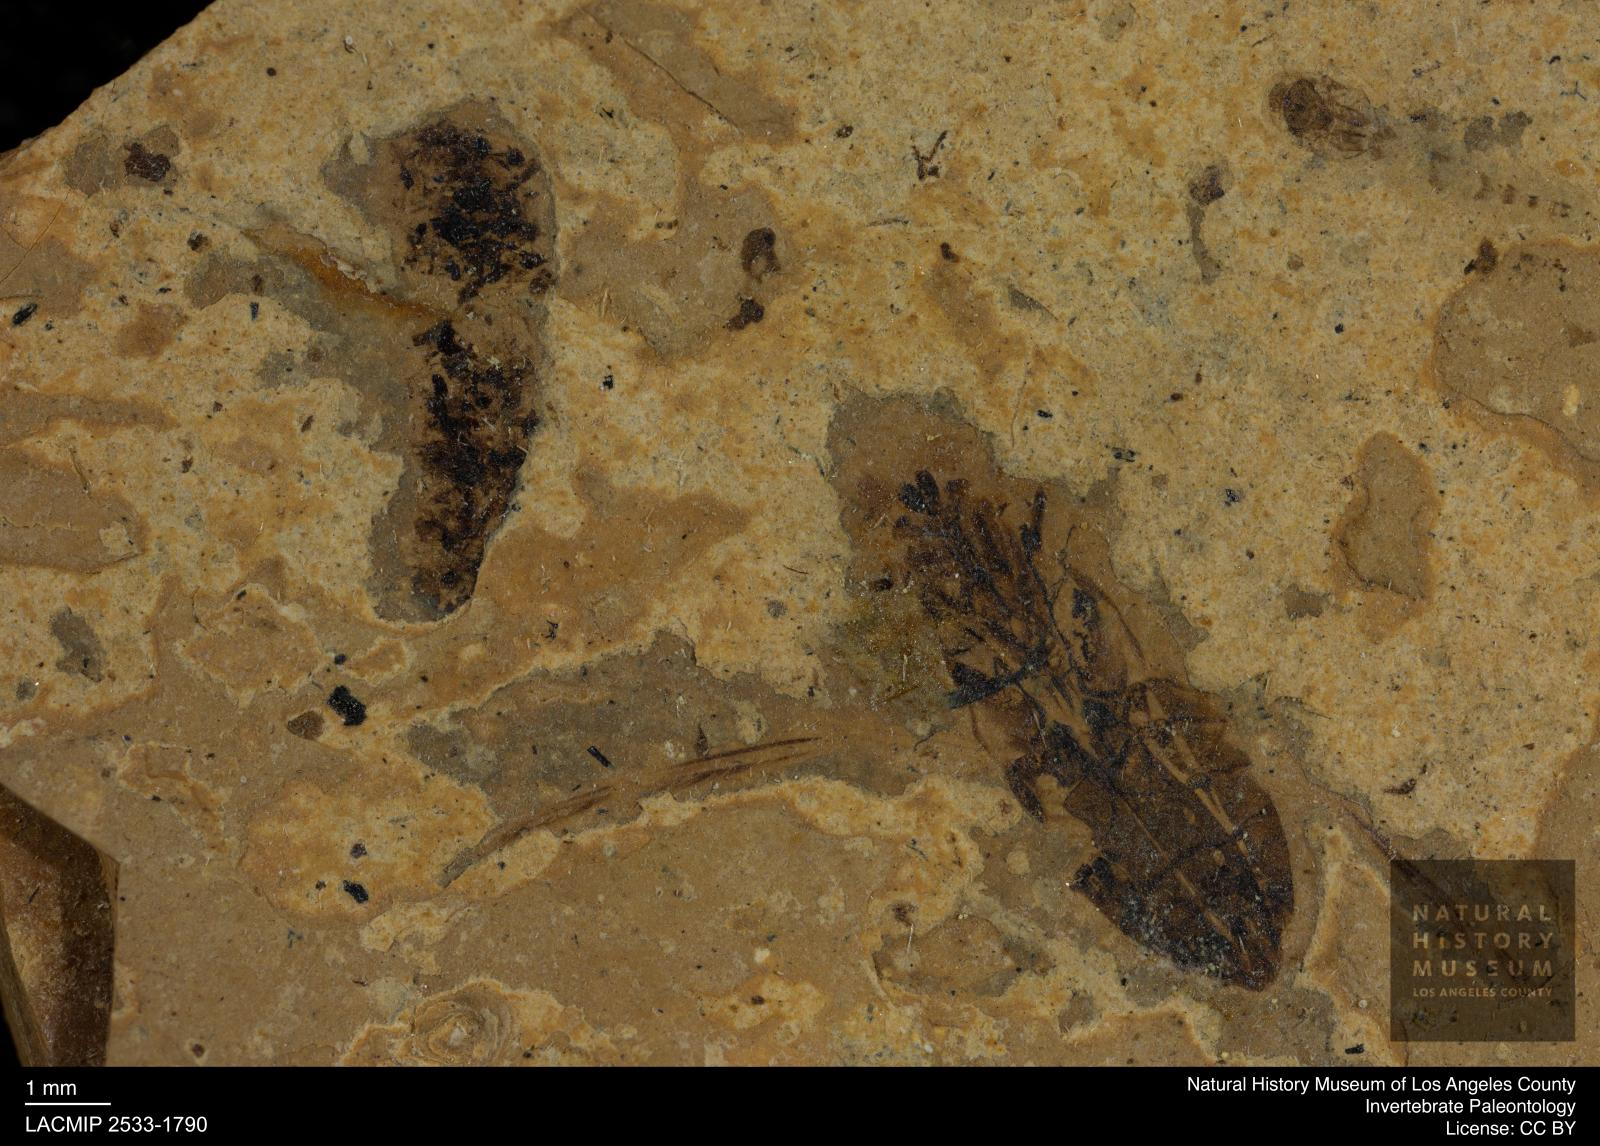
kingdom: Animalia
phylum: Arthropoda
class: Insecta
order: Hemiptera
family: Notonectidae
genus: Notonecta
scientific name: Notonecta
